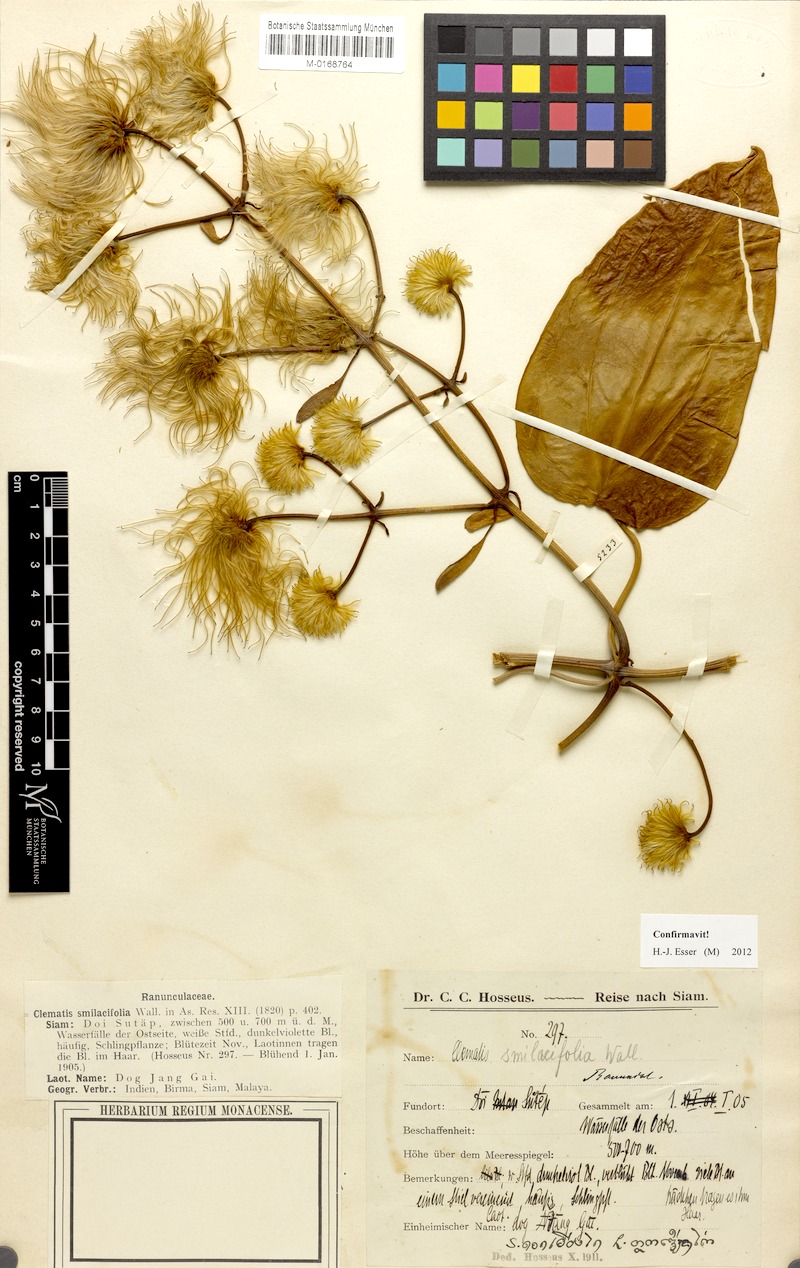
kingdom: Plantae
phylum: Tracheophyta
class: Magnoliopsida
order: Ranunculales
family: Ranunculaceae
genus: Clematis
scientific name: Clematis smilacifolia
